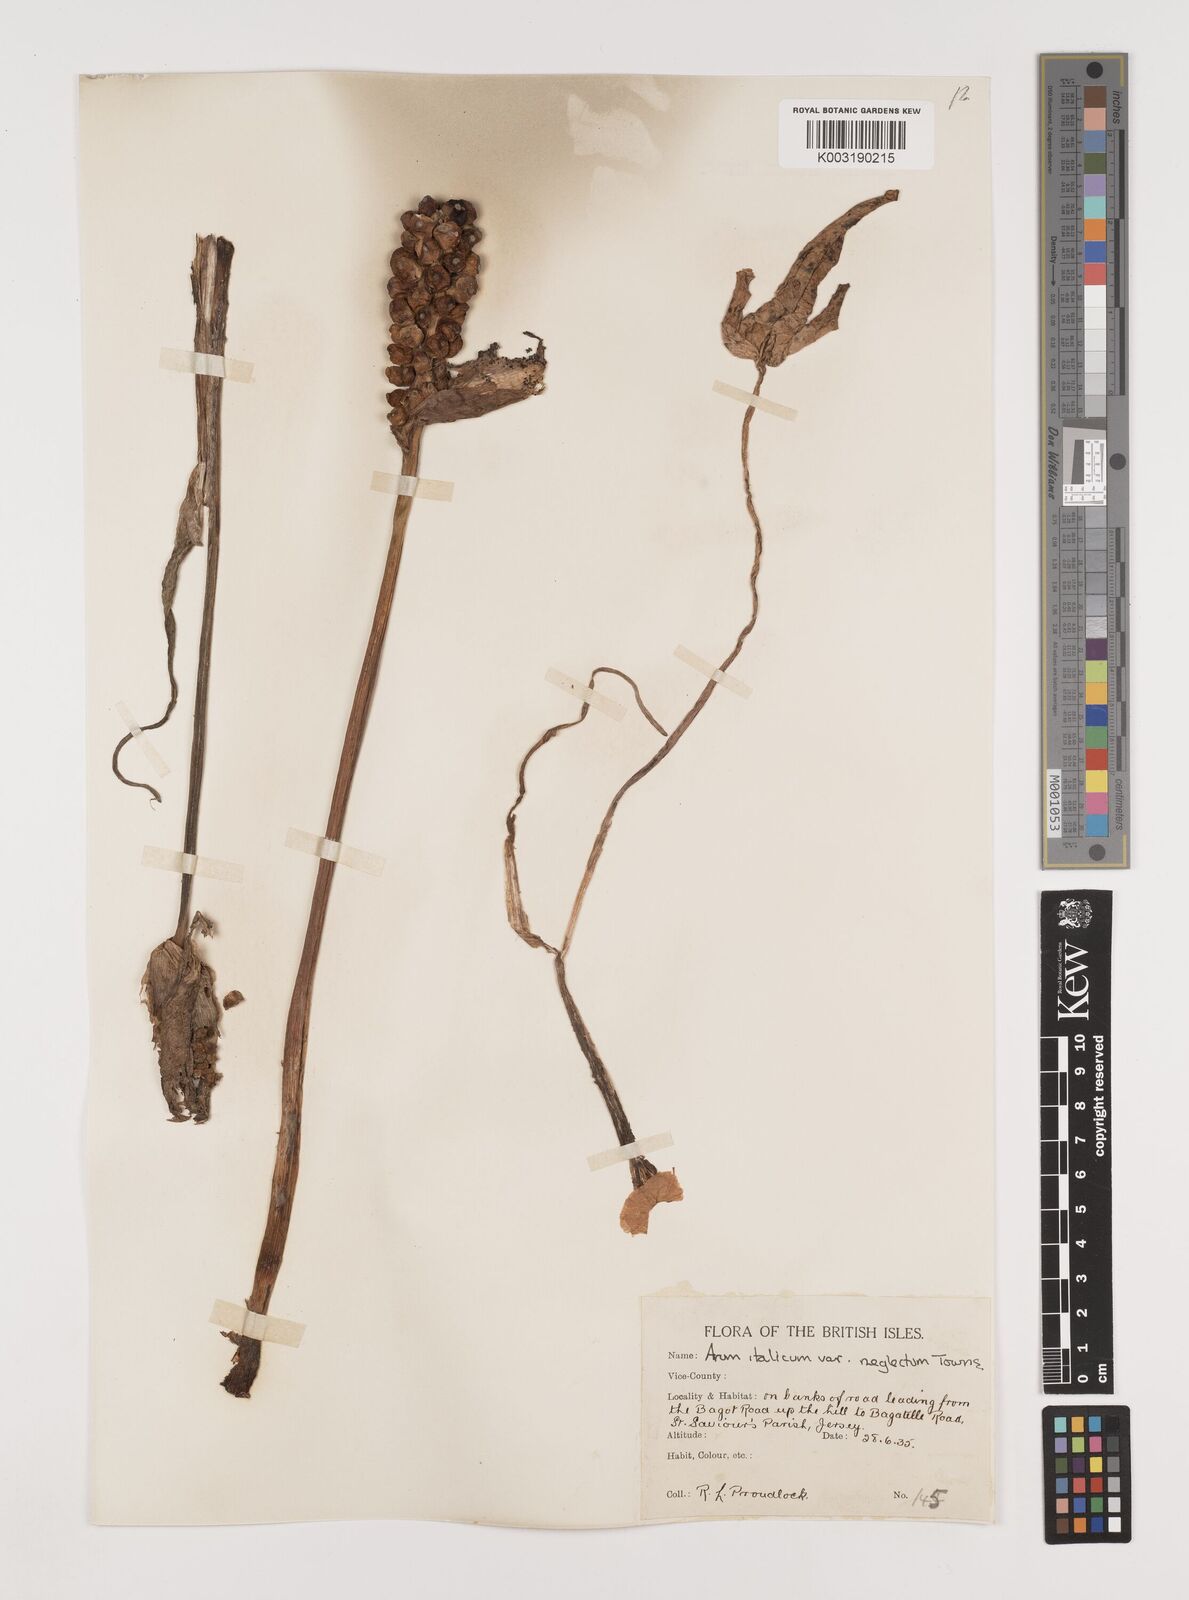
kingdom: Plantae
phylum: Tracheophyta
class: Liliopsida
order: Alismatales
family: Araceae
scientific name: Araceae
